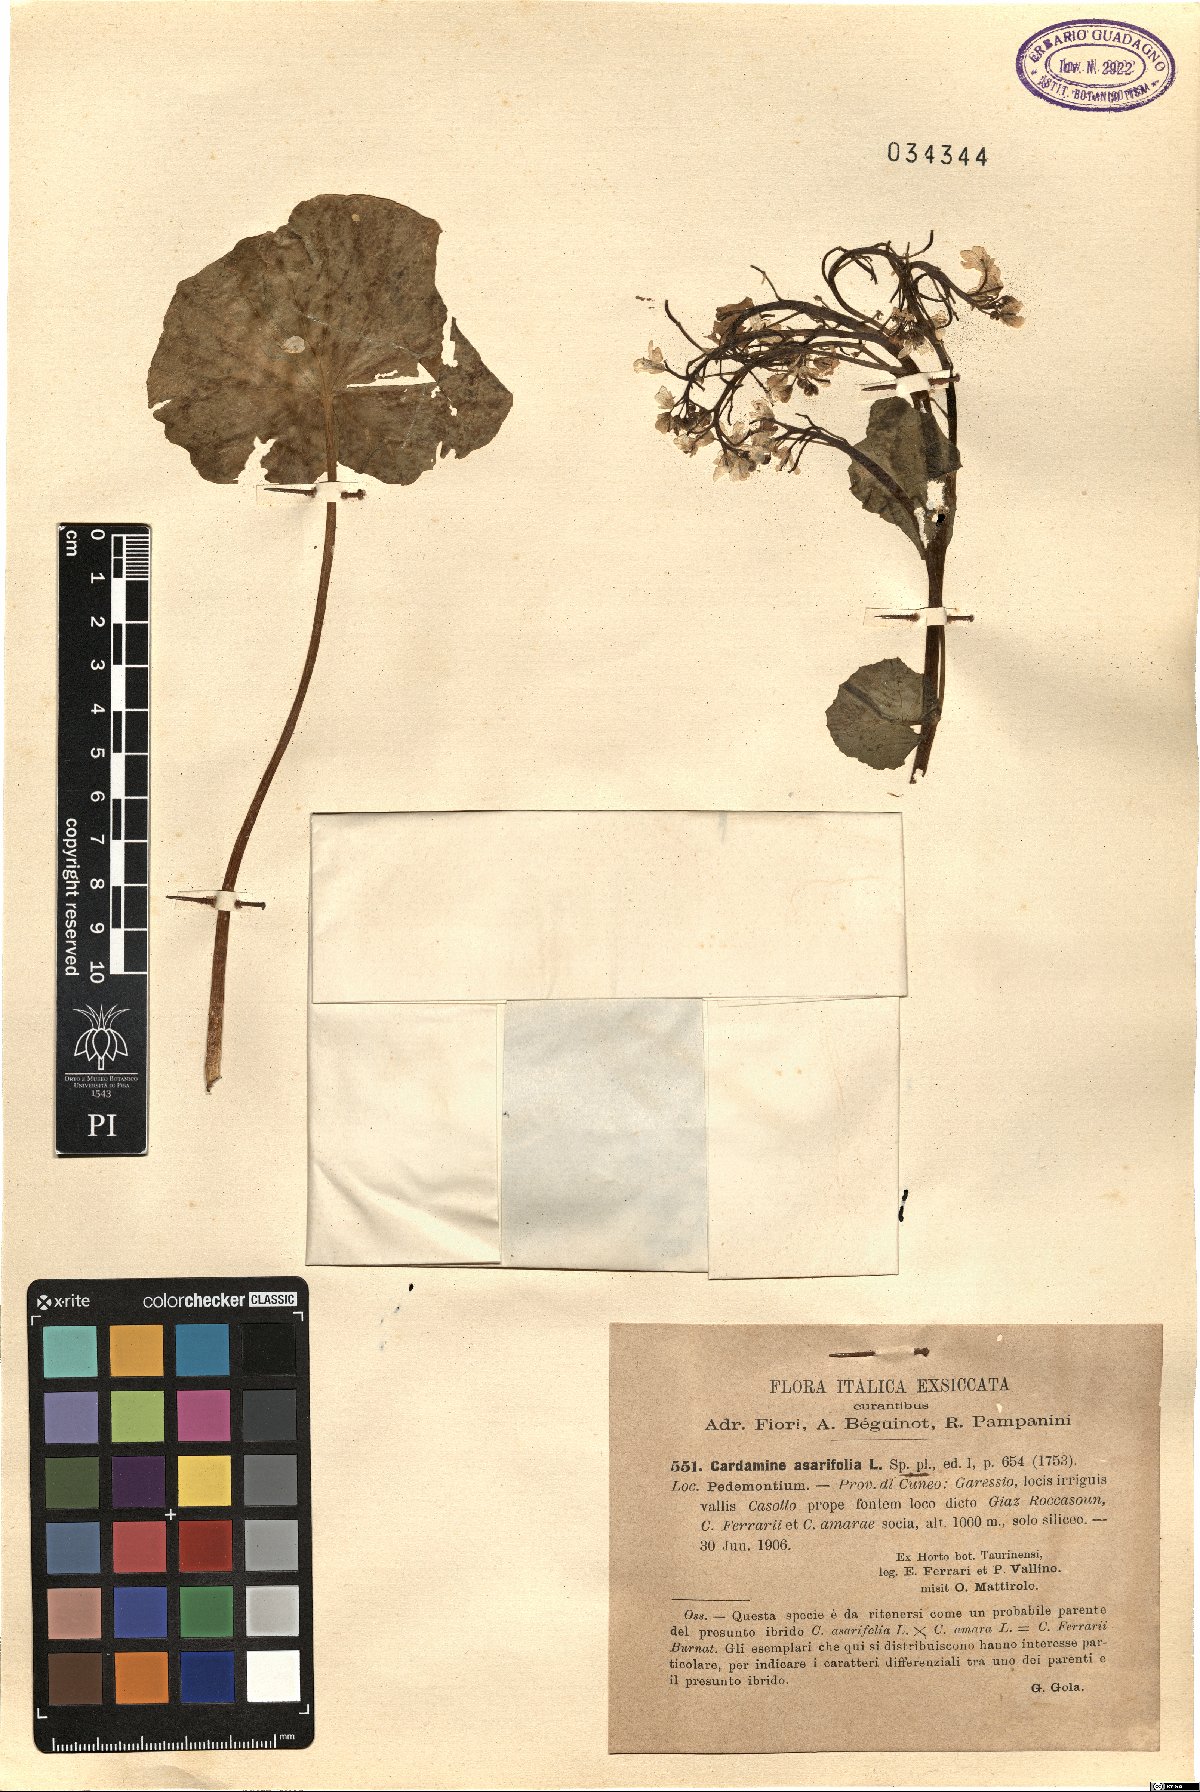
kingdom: Plantae
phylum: Tracheophyta
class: Magnoliopsida
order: Brassicales
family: Brassicaceae
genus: Cardamine
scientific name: Cardamine asarifolia
